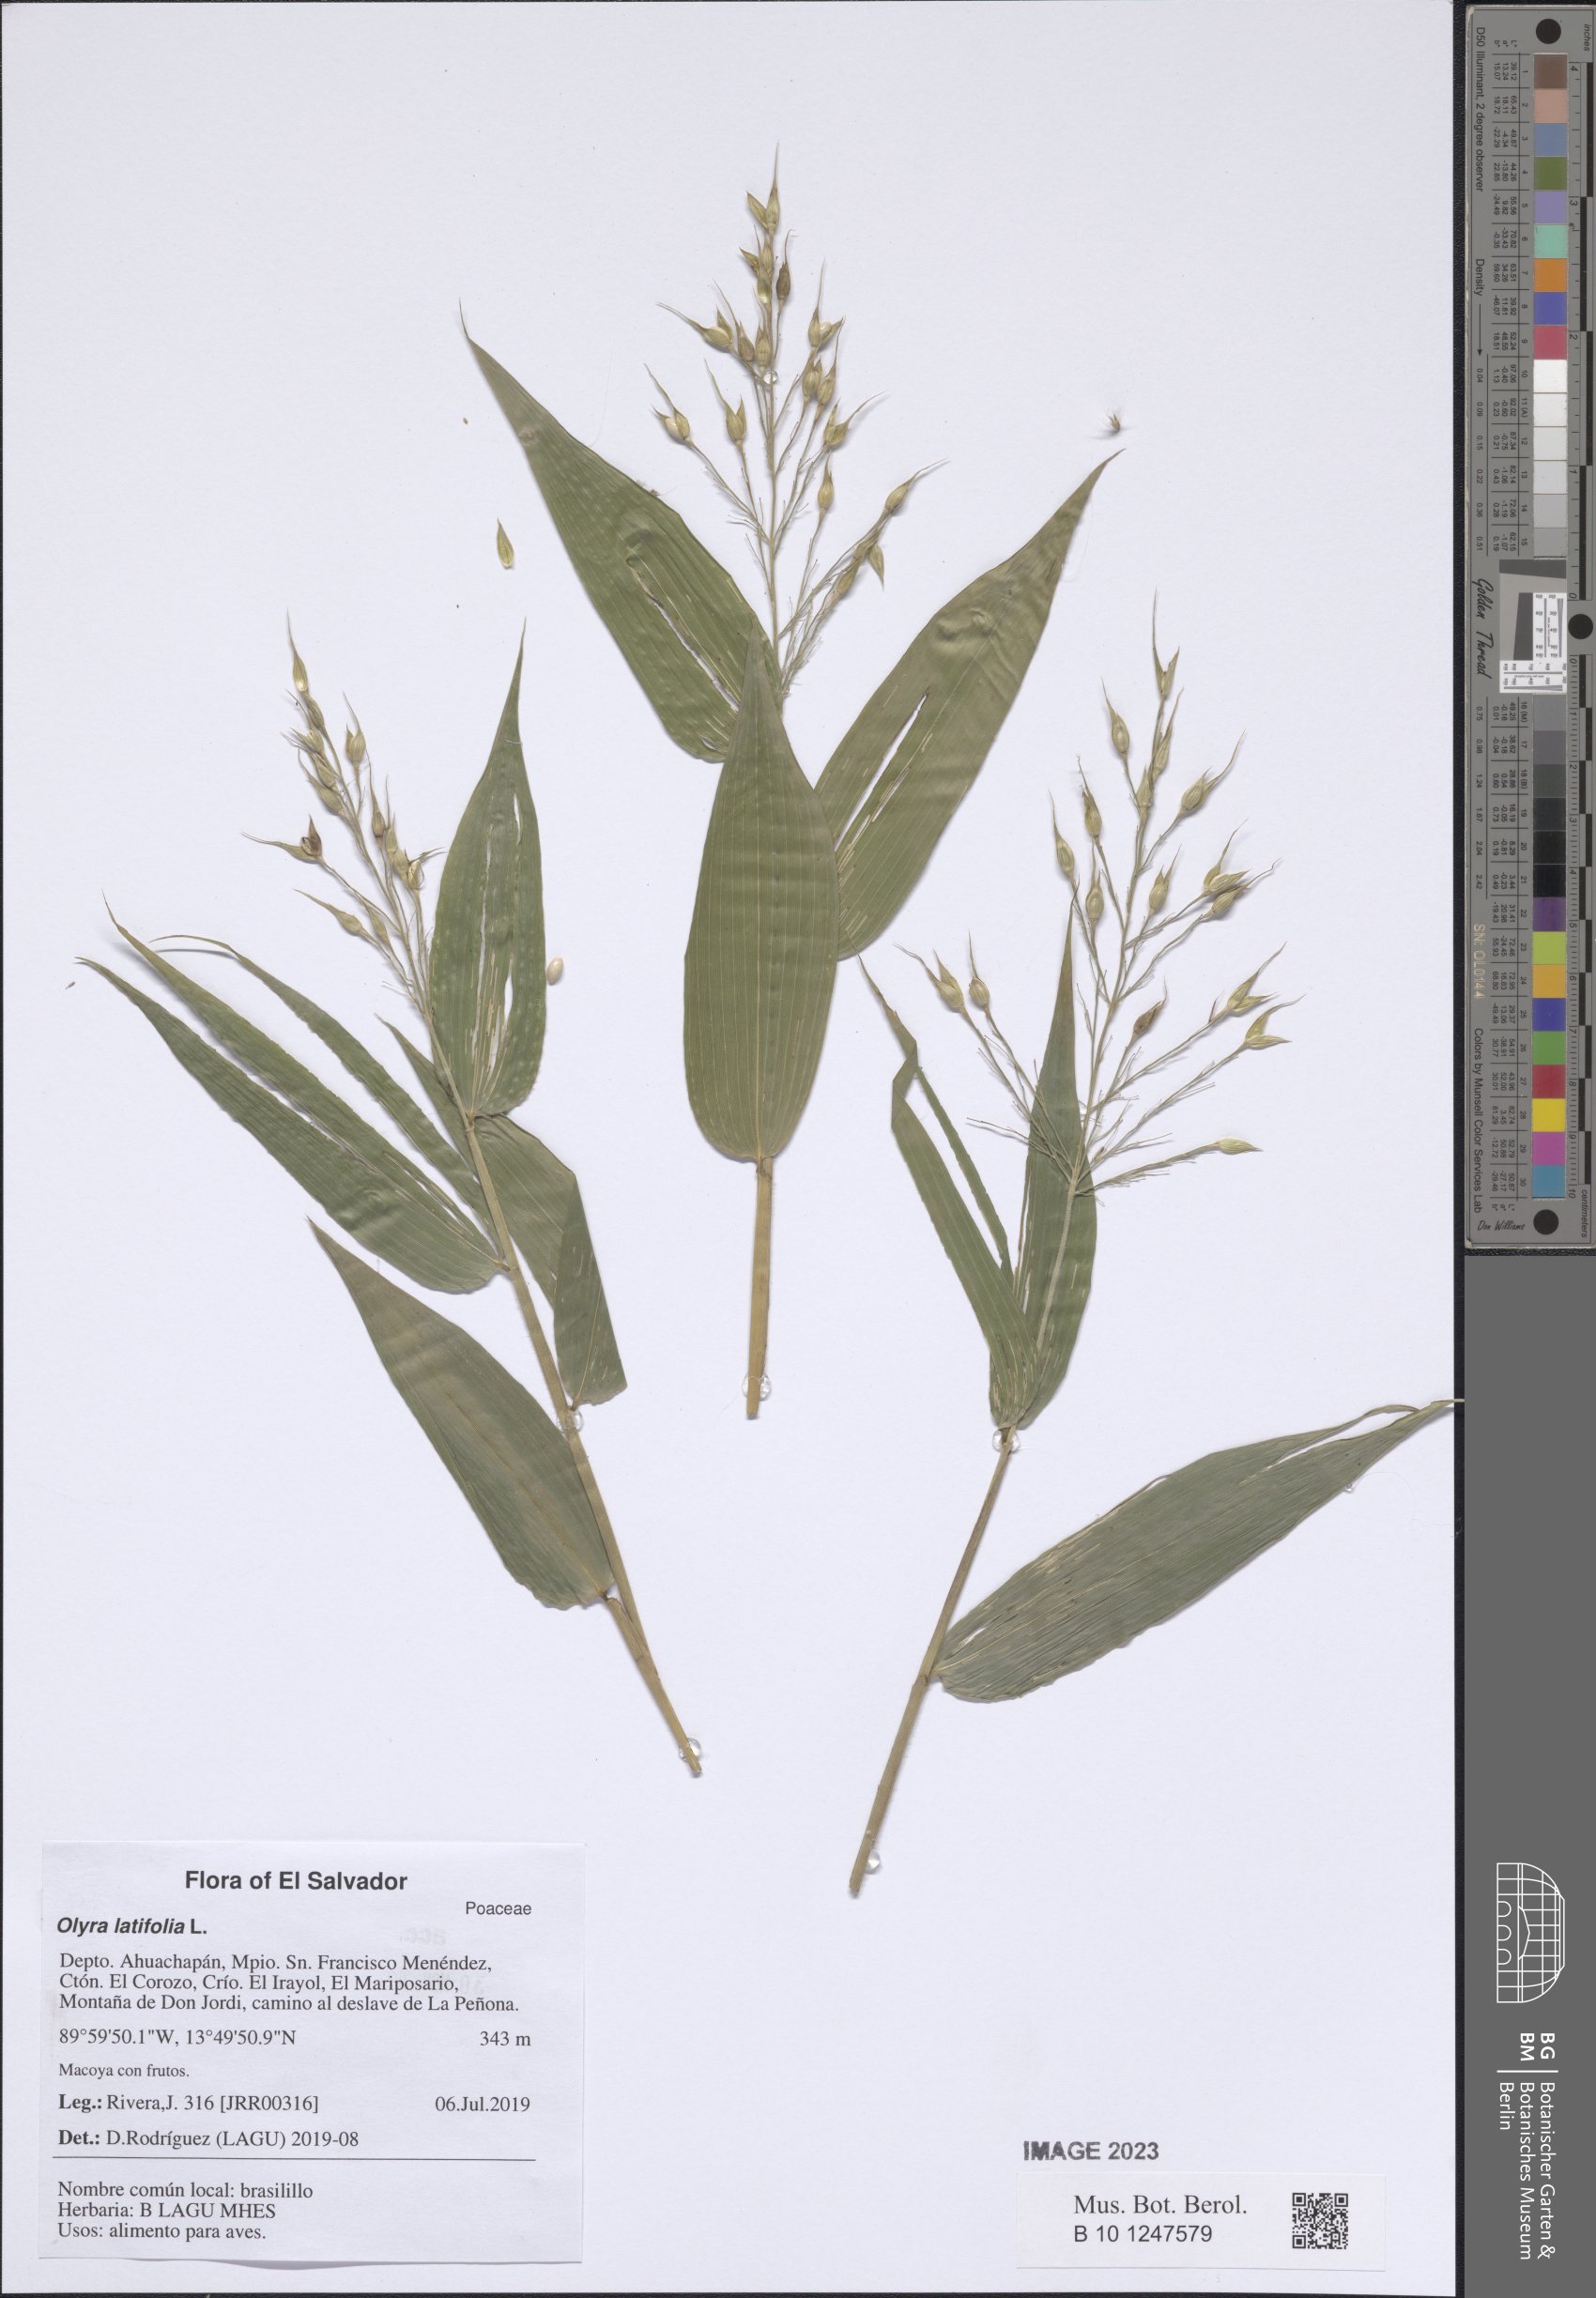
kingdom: Plantae
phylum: Tracheophyta
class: Liliopsida
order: Poales
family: Poaceae
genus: Olyra
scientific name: Olyra latifolia
